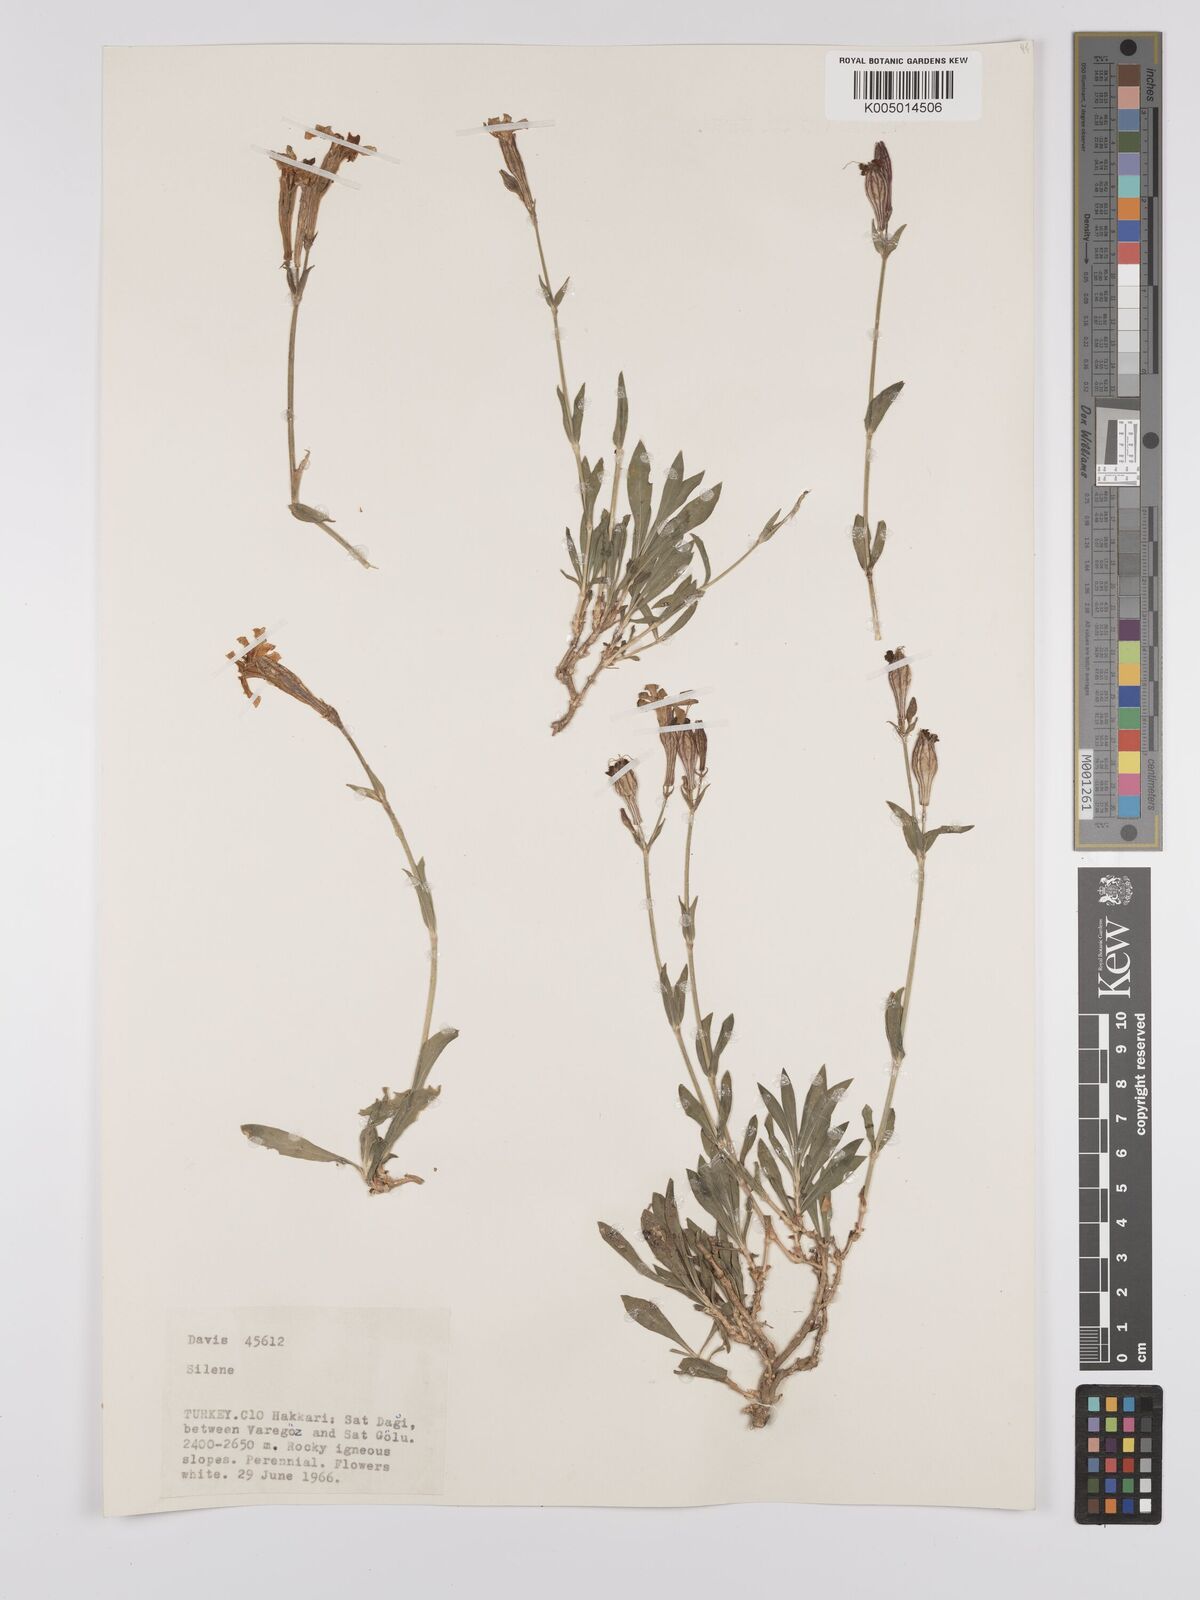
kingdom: Plantae
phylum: Tracheophyta
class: Magnoliopsida
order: Caryophyllales
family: Caryophyllaceae
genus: Silene
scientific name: Silene
